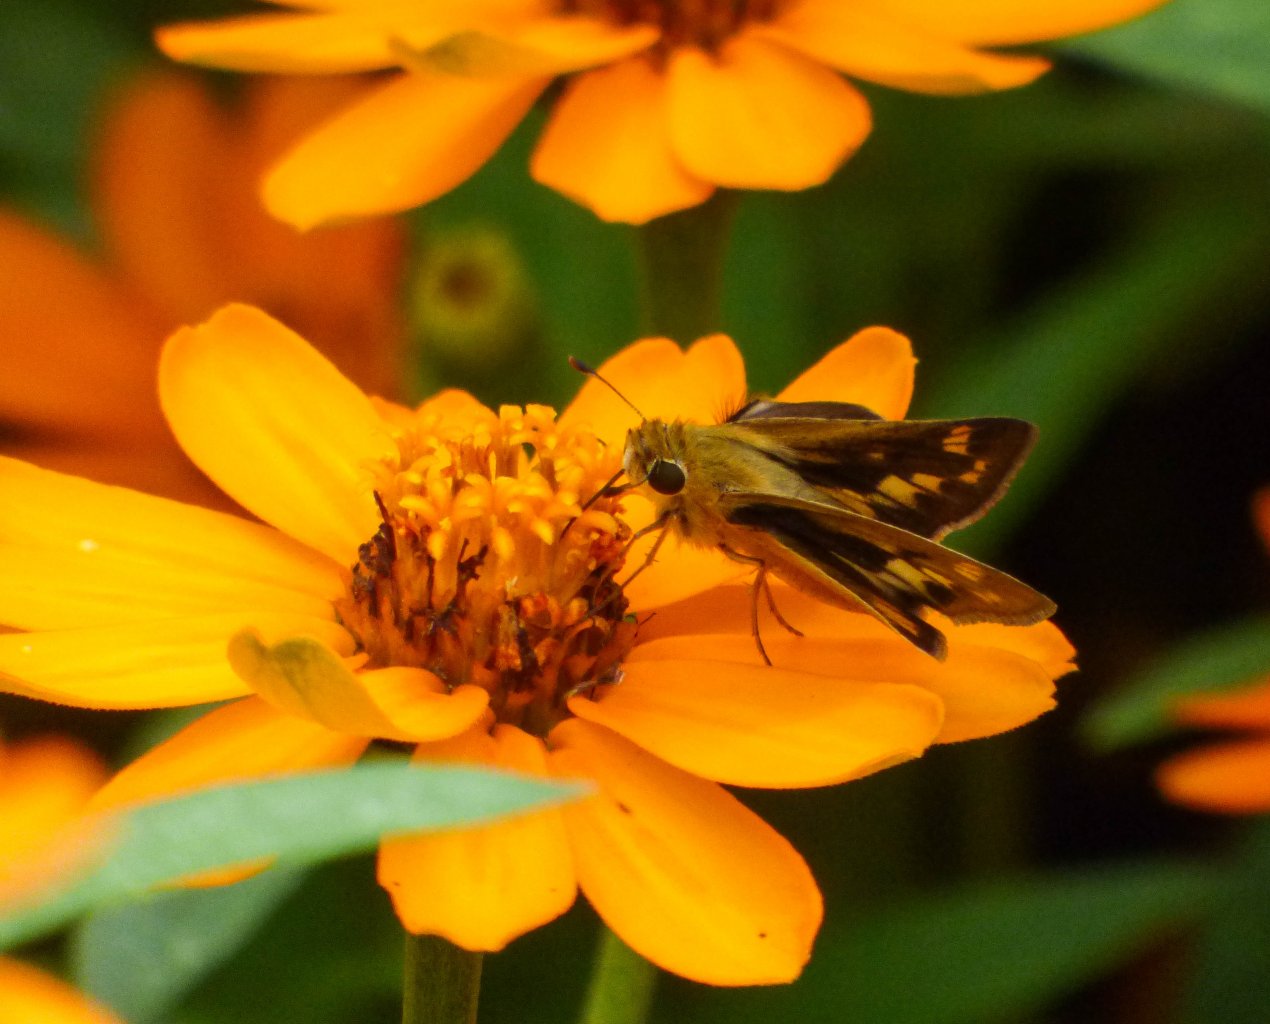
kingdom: Animalia
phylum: Arthropoda
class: Insecta
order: Lepidoptera
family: Hesperiidae
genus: Hylephila
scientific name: Hylephila phyleus
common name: Fiery Skipper
